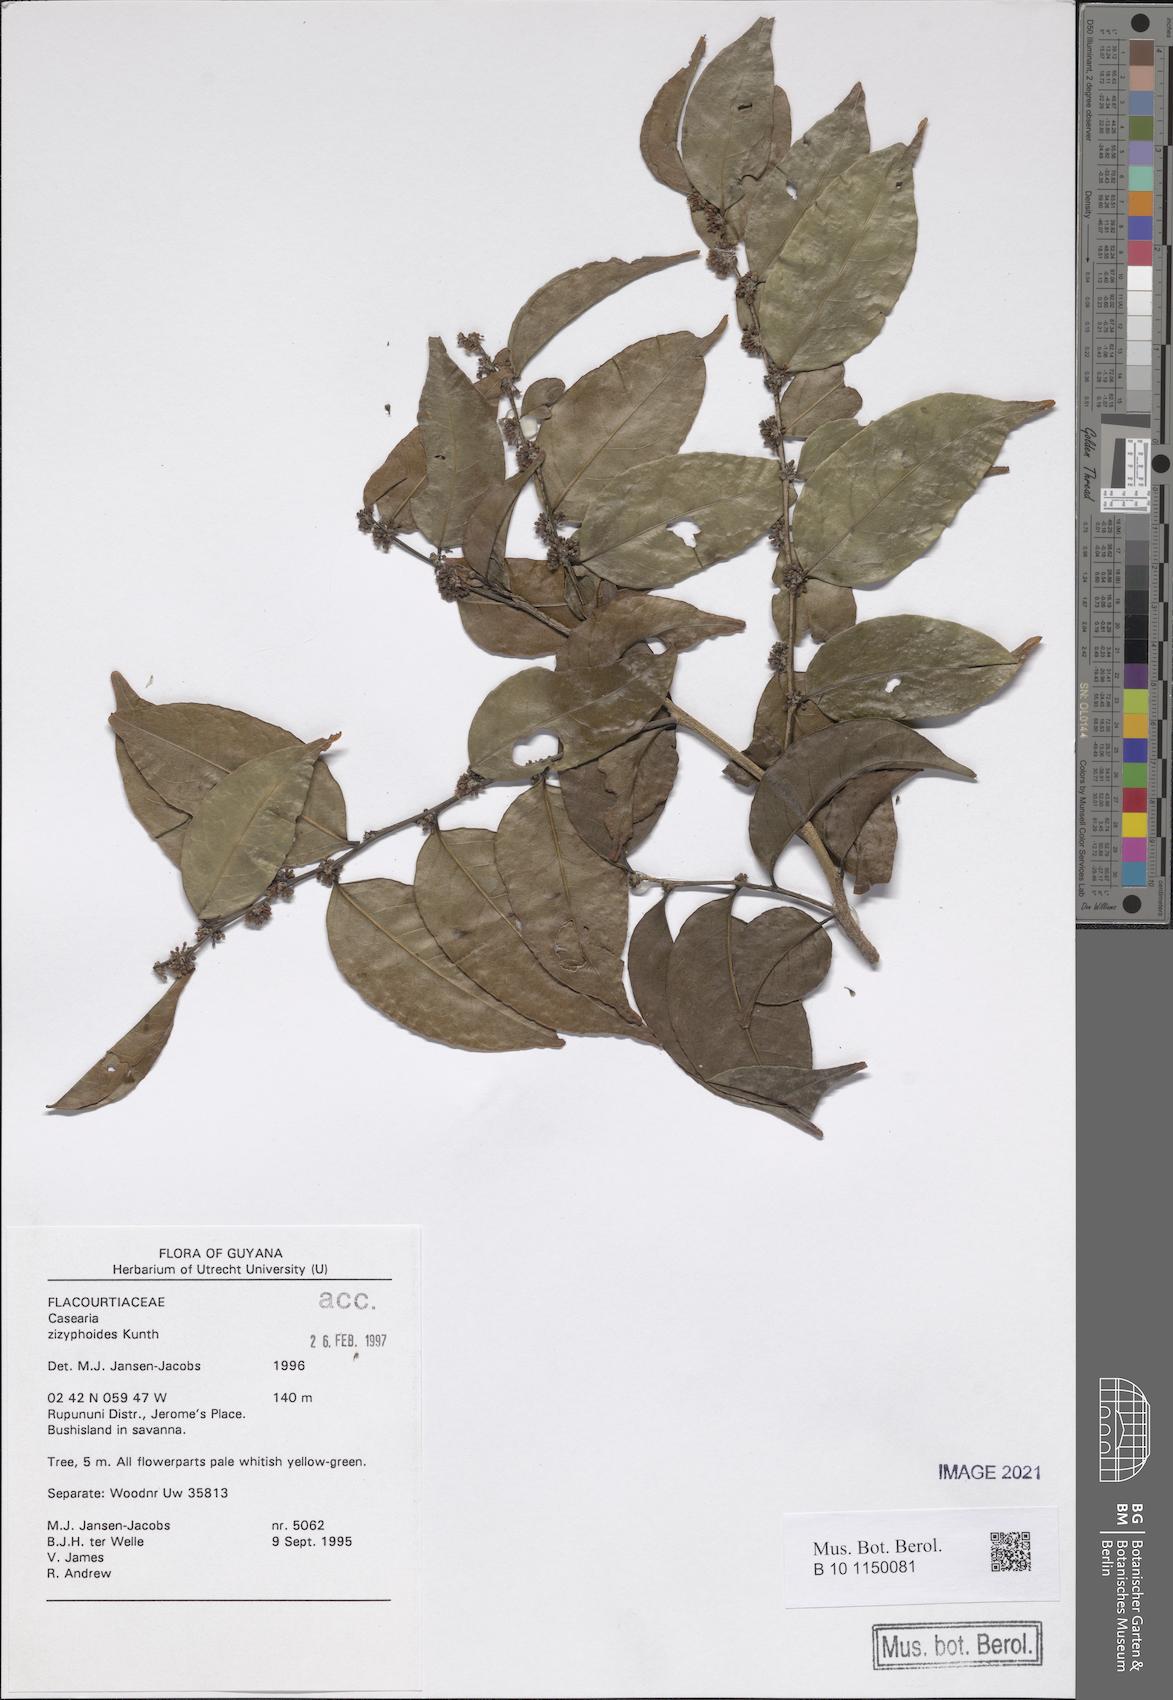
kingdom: Plantae
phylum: Tracheophyta
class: Magnoliopsida
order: Malpighiales
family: Salicaceae
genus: Casearia
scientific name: Casearia zizyphoides
